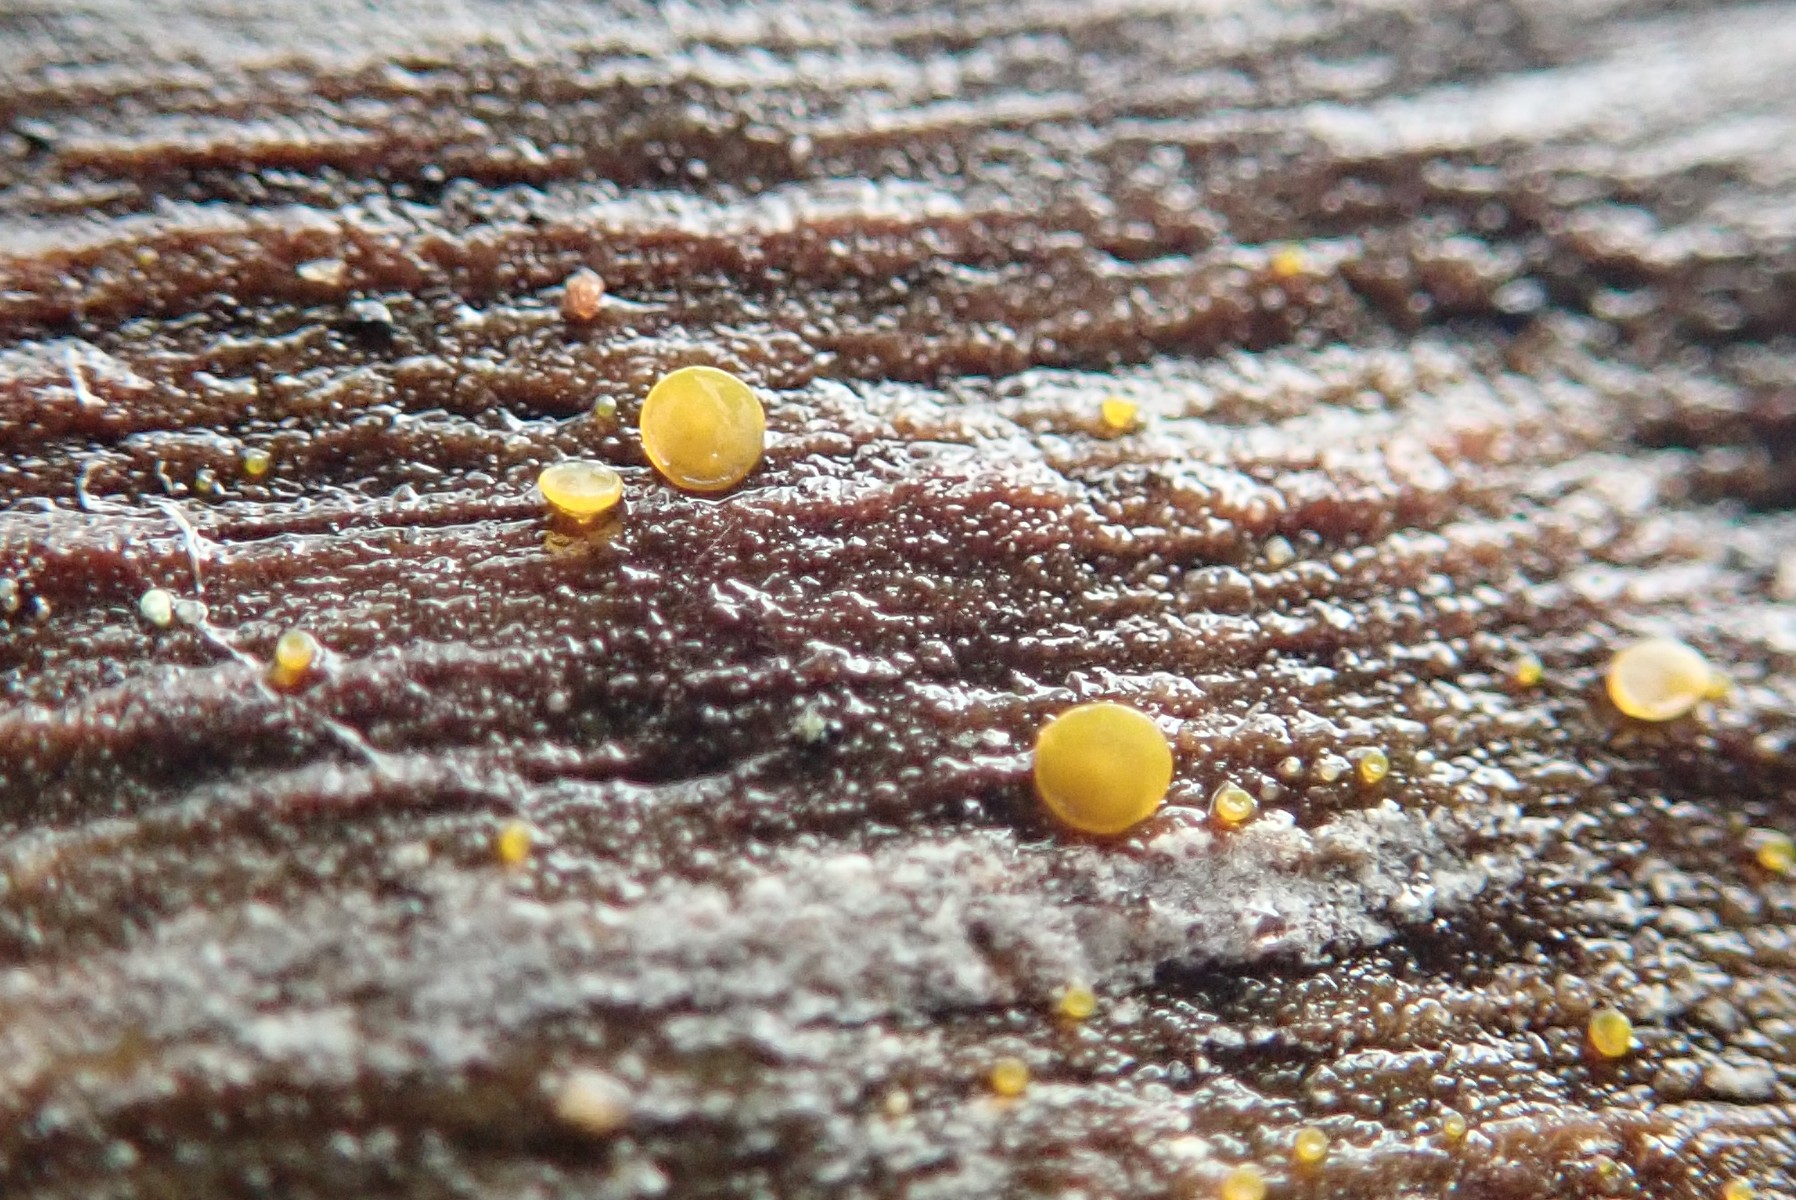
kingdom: Fungi
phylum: Ascomycota
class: Orbiliomycetes
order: Orbiliales
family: Orbiliaceae
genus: Orbilia
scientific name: Orbilia xanthostigma
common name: krumsporet voksskive
